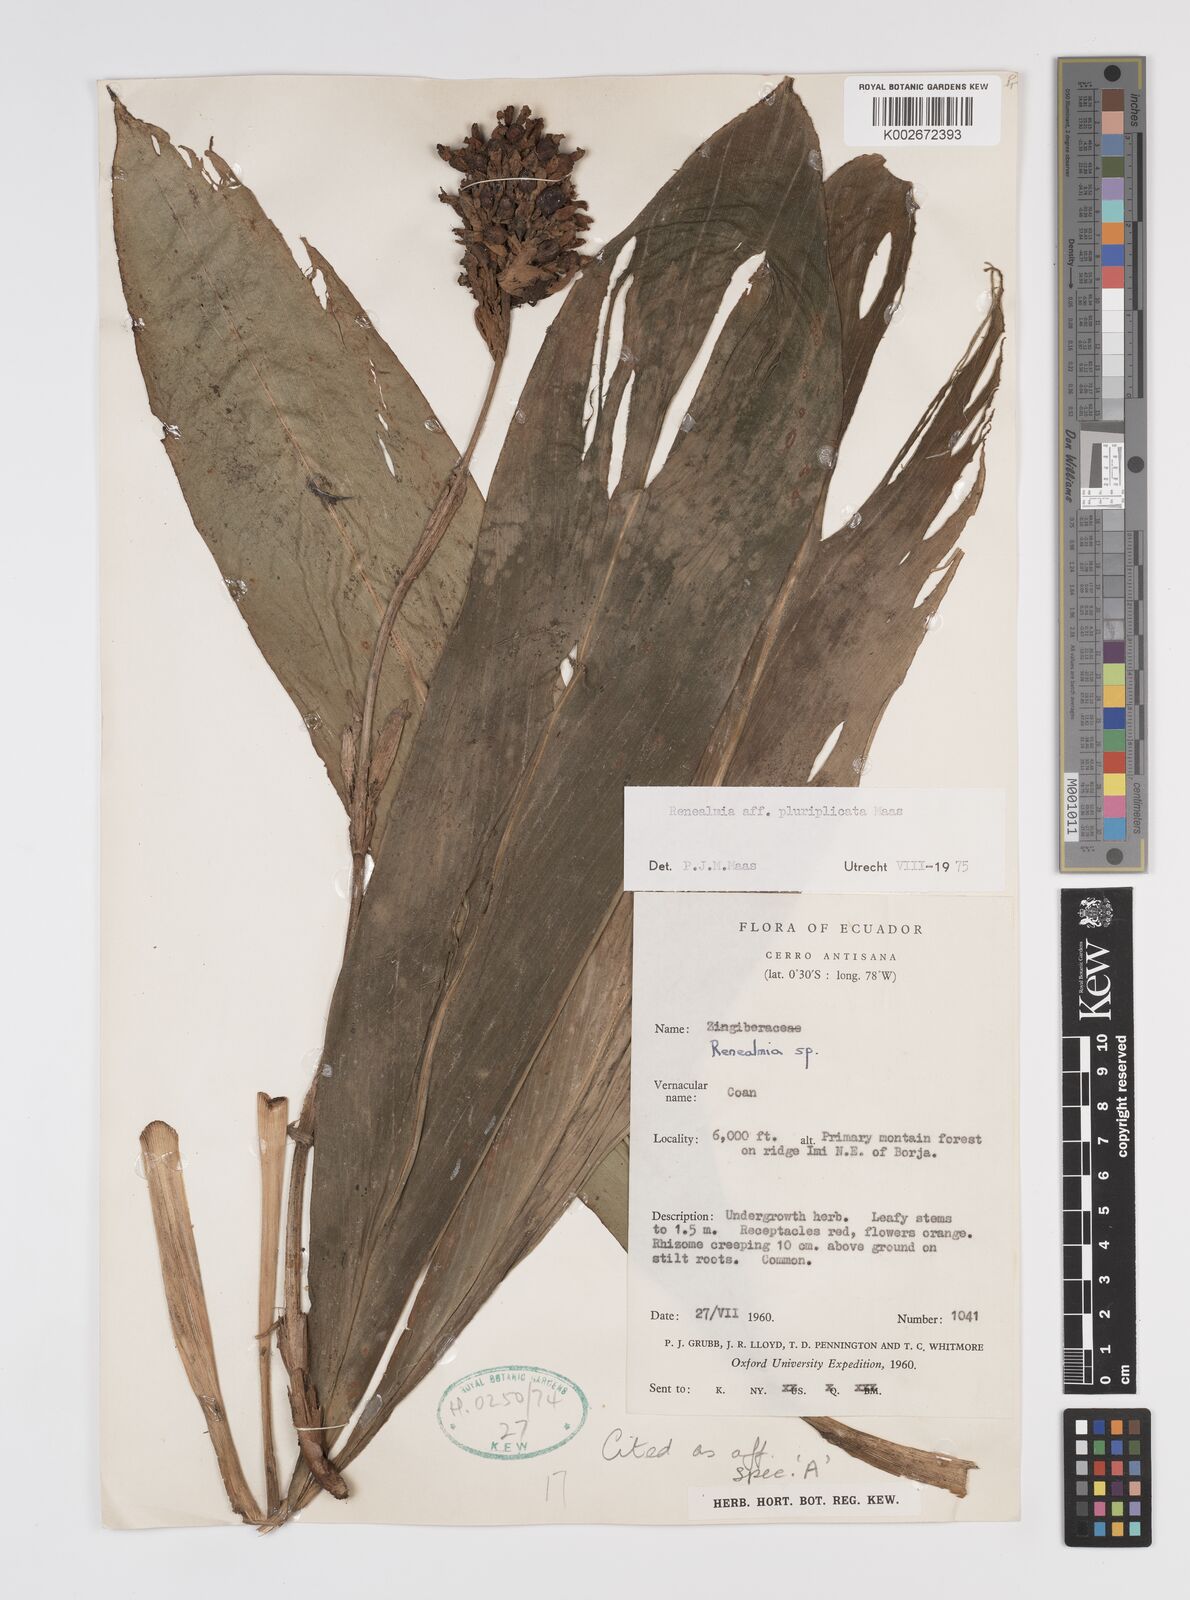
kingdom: Plantae
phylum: Tracheophyta
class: Liliopsida
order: Zingiberales
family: Zingiberaceae
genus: Renealmia
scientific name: Renealmia
